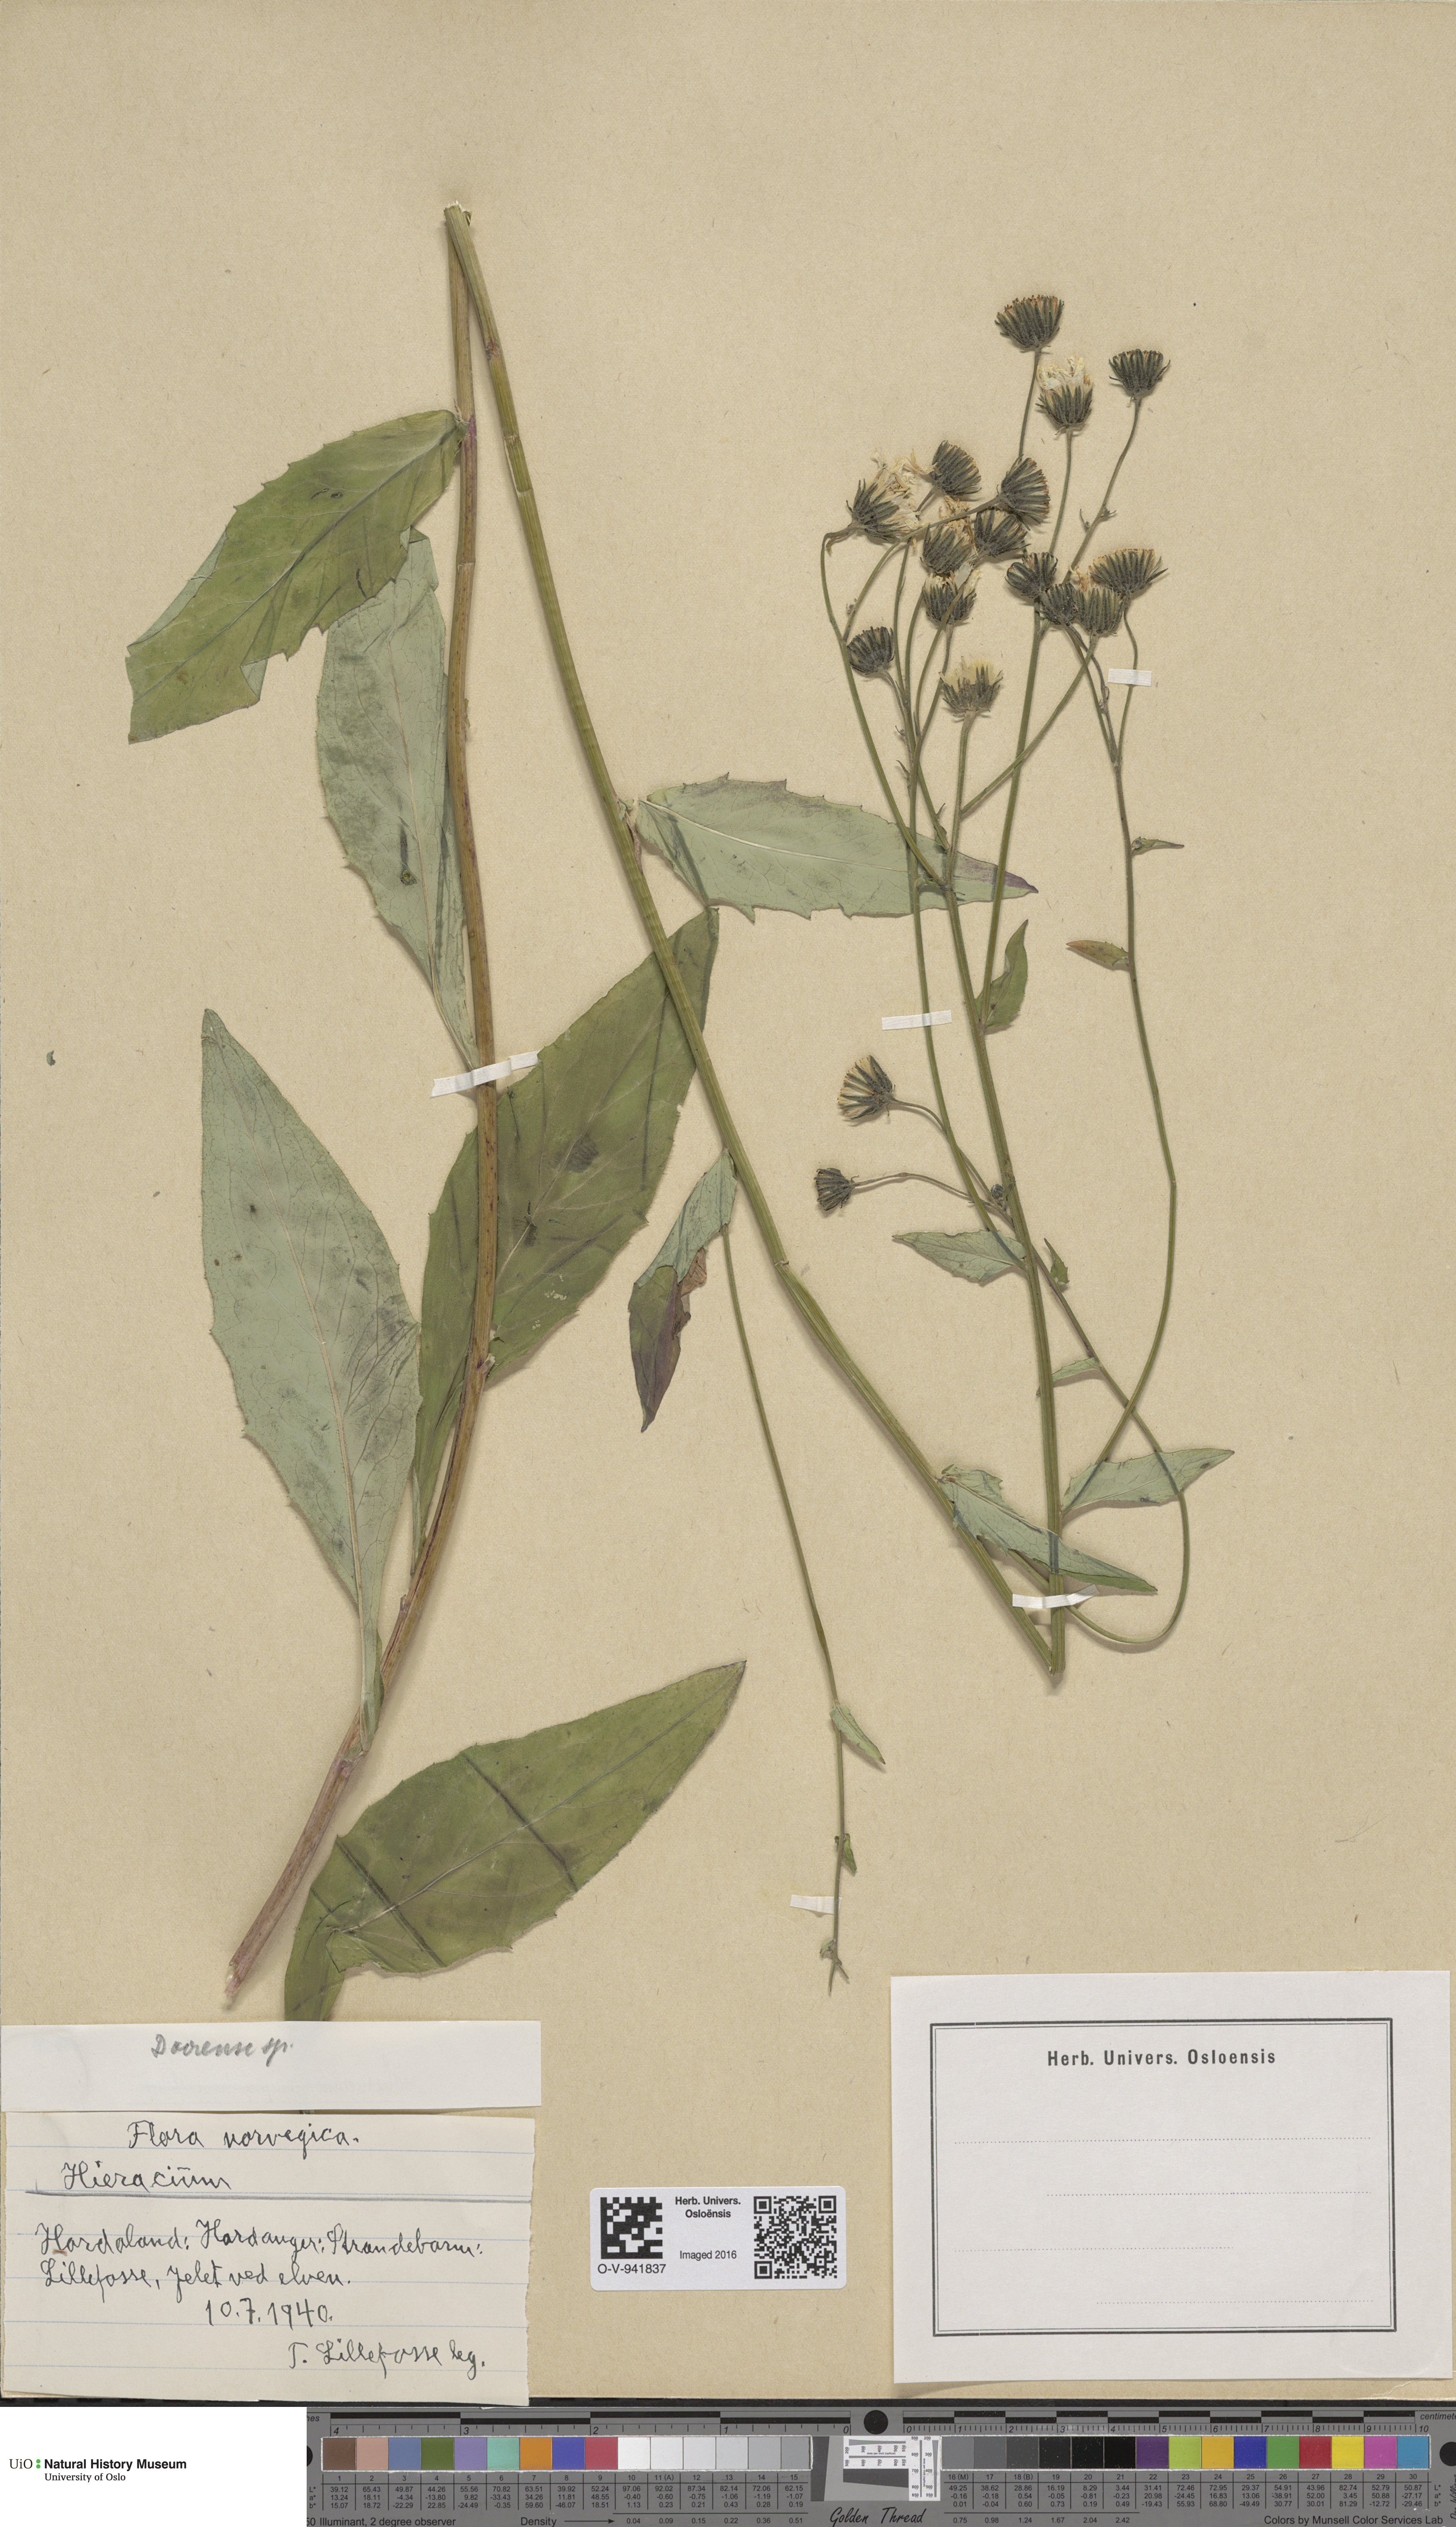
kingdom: Plantae
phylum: Tracheophyta
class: Magnoliopsida
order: Asterales
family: Asteraceae
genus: Hieracium
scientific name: Hieracium dovrense
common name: Dovre hawkweed
